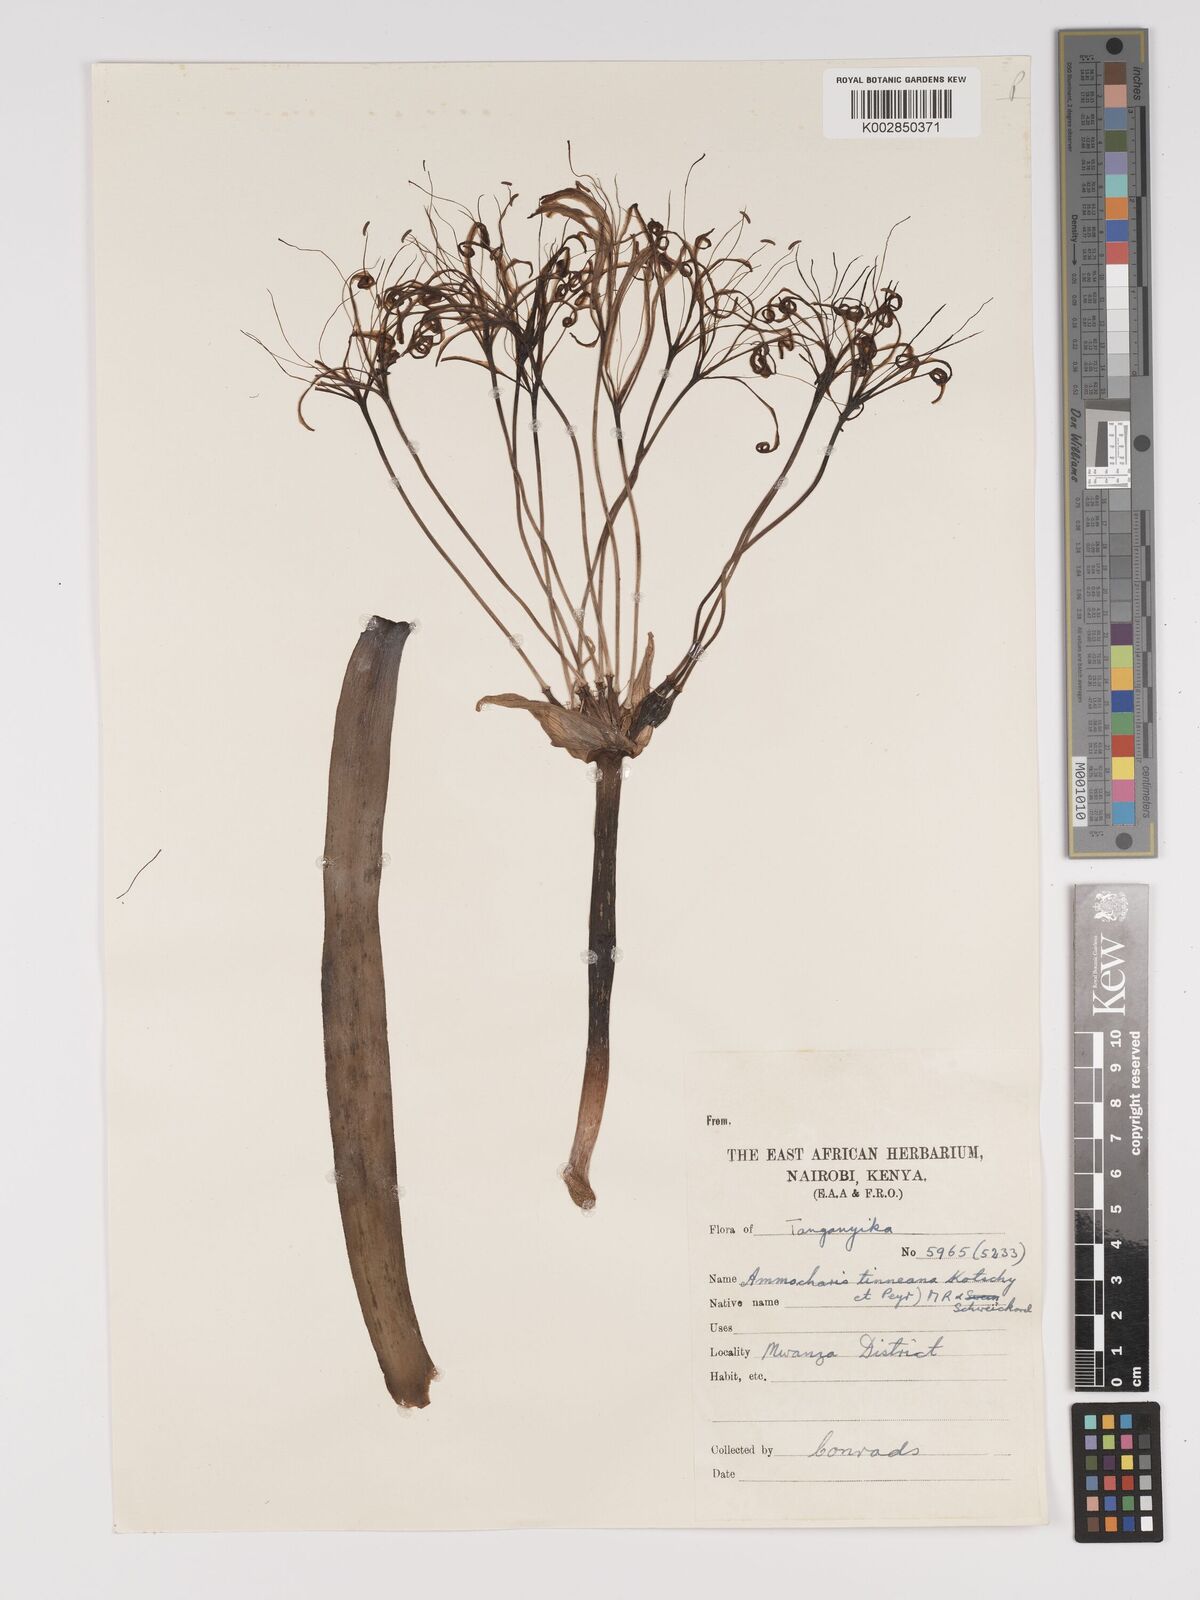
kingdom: Plantae
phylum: Tracheophyta
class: Liliopsida
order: Asparagales
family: Amaryllidaceae
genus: Ammocharis
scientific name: Ammocharis tinneana
